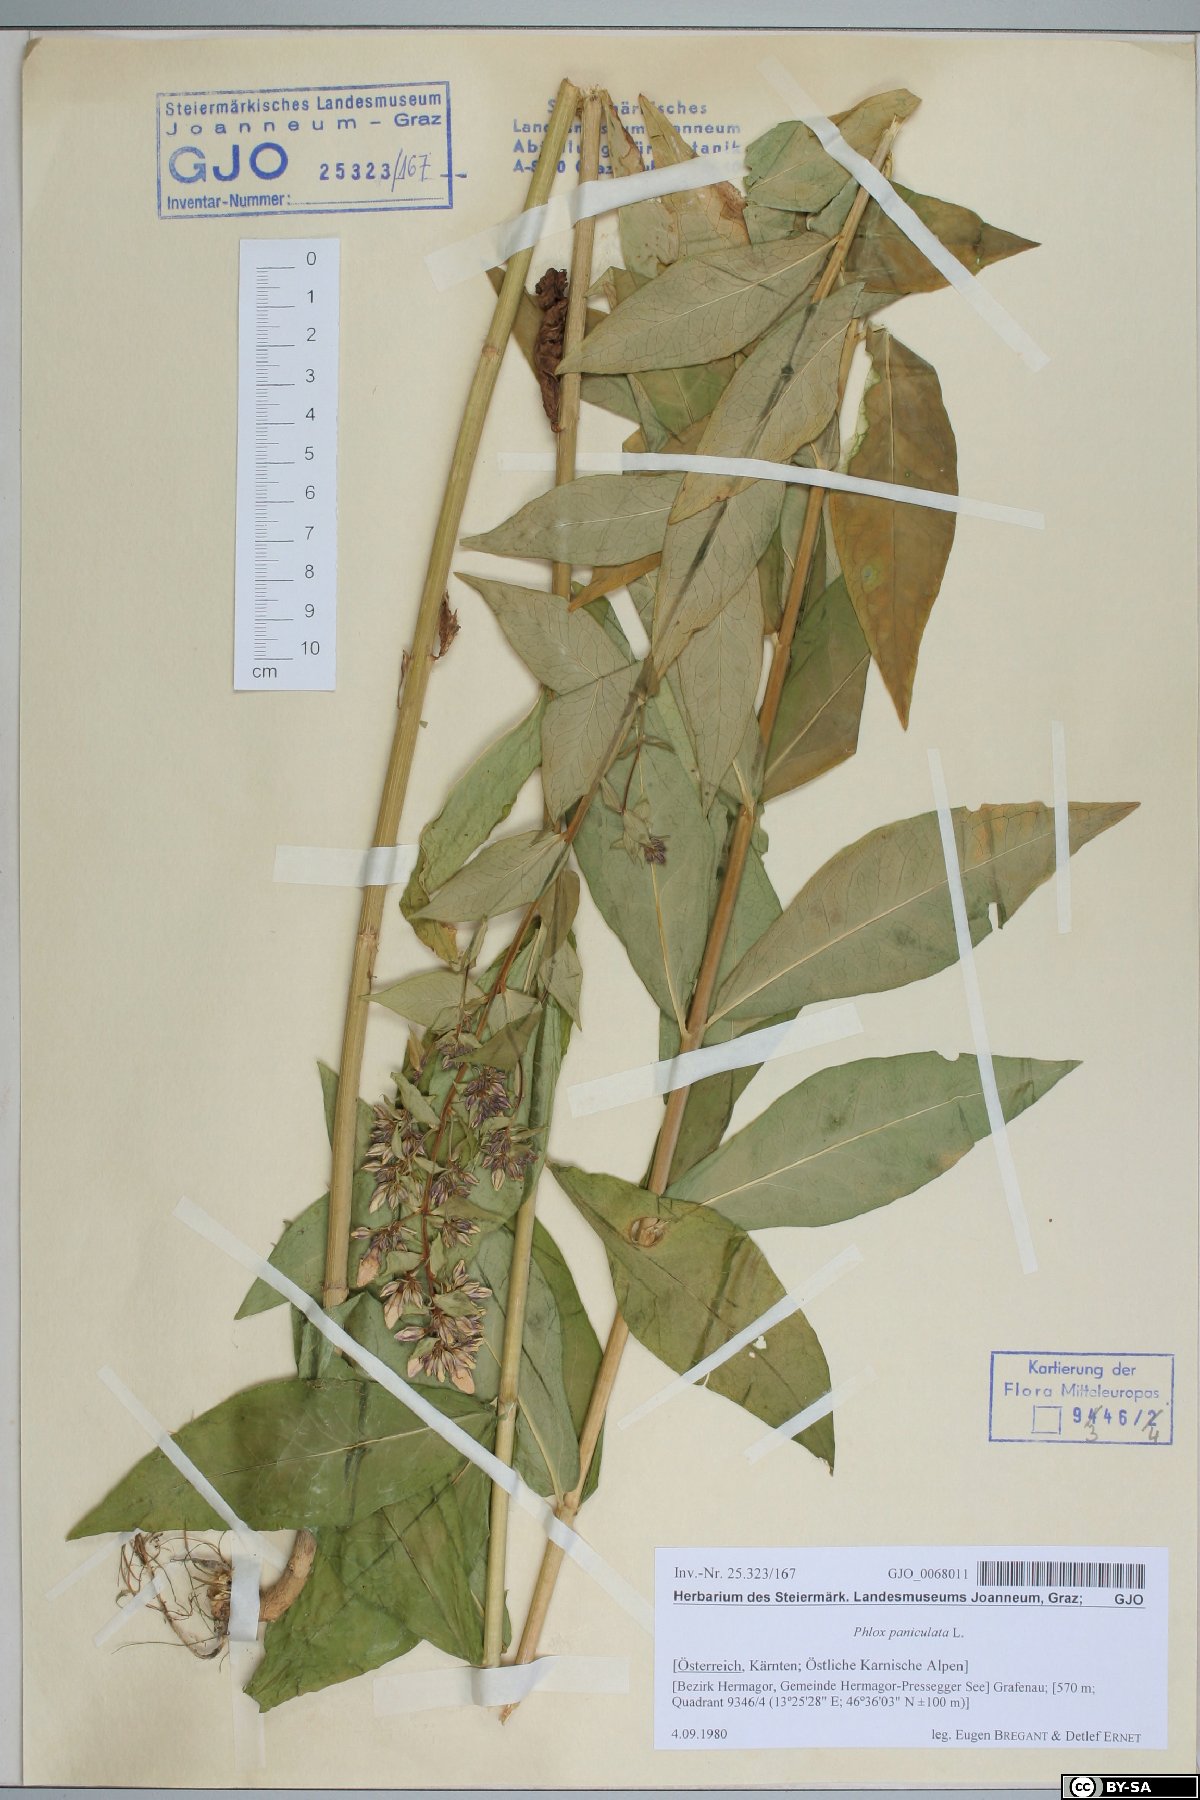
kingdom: Plantae
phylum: Tracheophyta
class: Magnoliopsida
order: Ericales
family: Polemoniaceae
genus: Phlox
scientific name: Phlox paniculata
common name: Fall phlox
